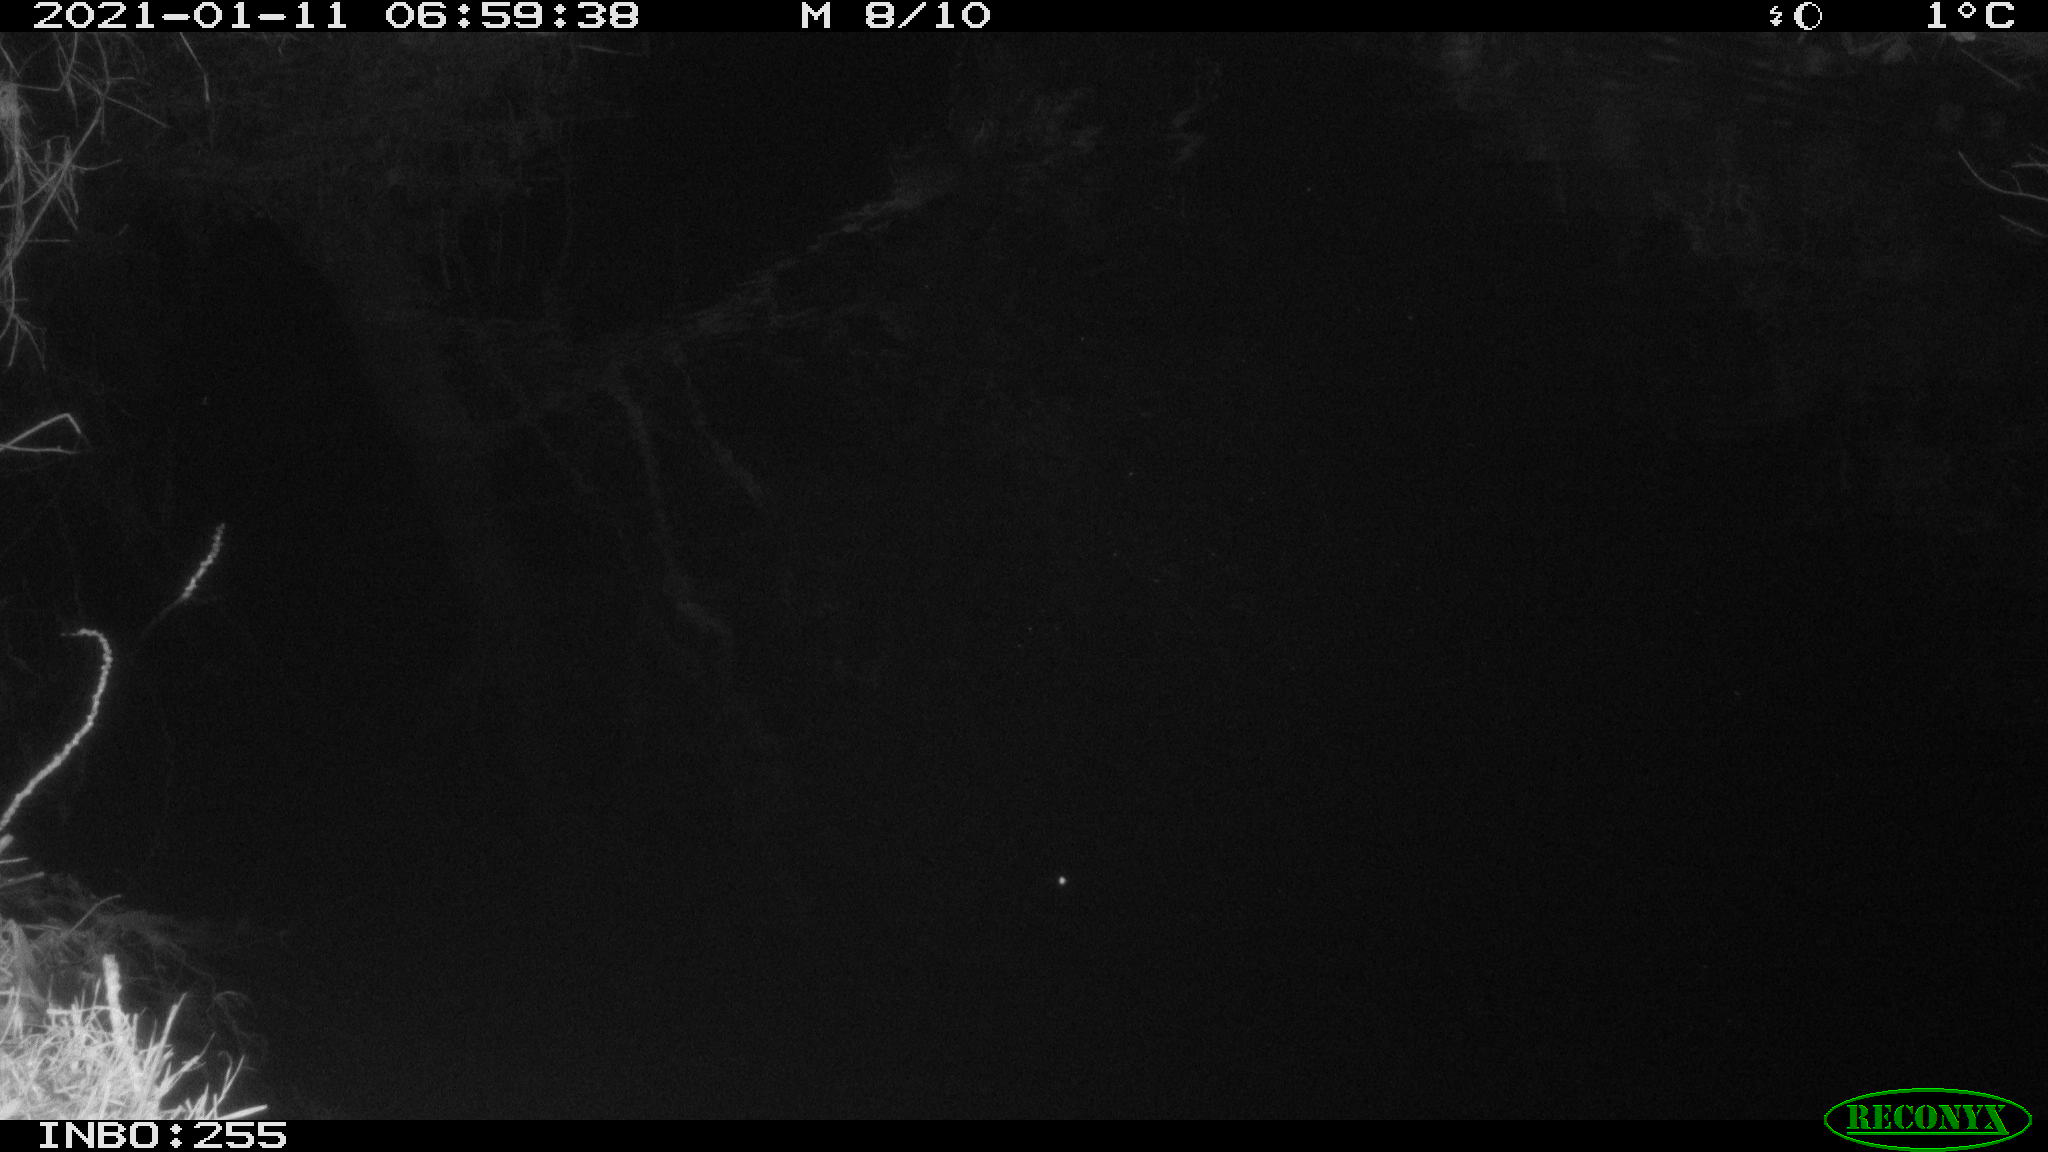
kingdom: Animalia
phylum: Chordata
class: Aves
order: Anseriformes
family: Anatidae
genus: Anas
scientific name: Anas platyrhynchos
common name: Mallard
